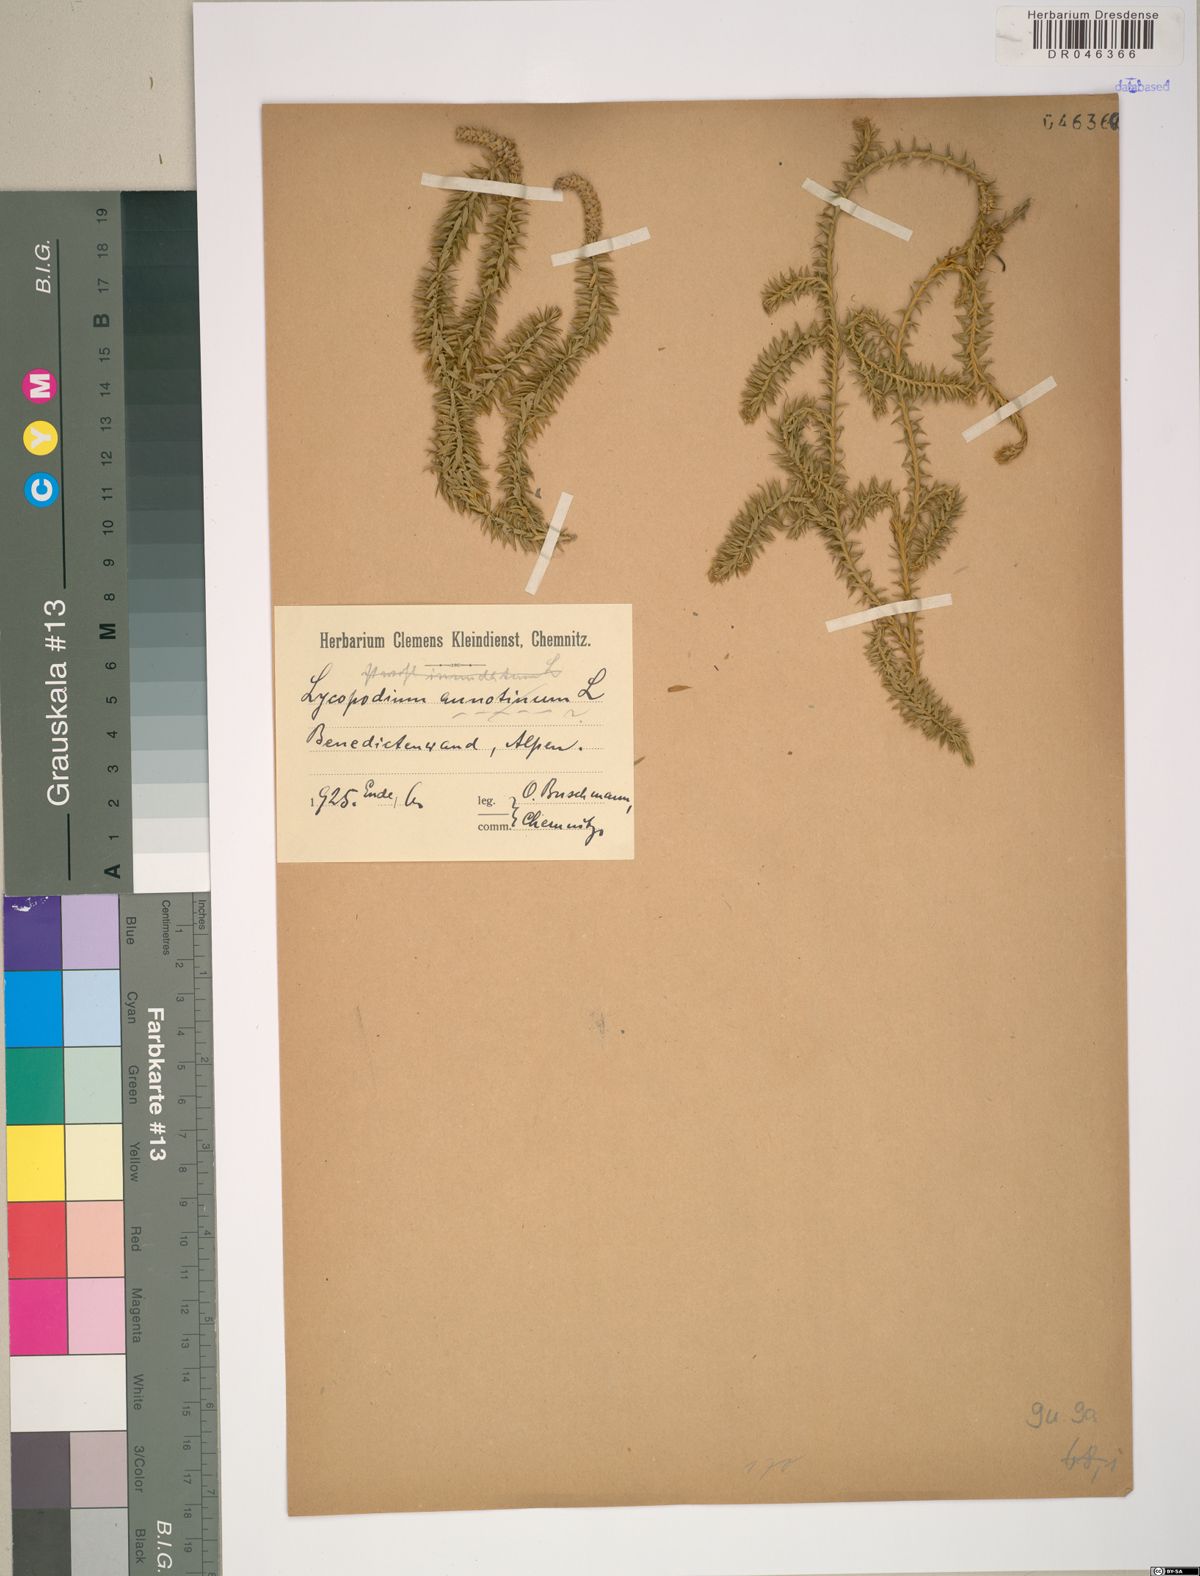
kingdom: Plantae
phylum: Tracheophyta
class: Lycopodiopsida
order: Lycopodiales
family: Lycopodiaceae
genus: Spinulum
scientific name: Spinulum annotinum
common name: Interrupted club-moss
